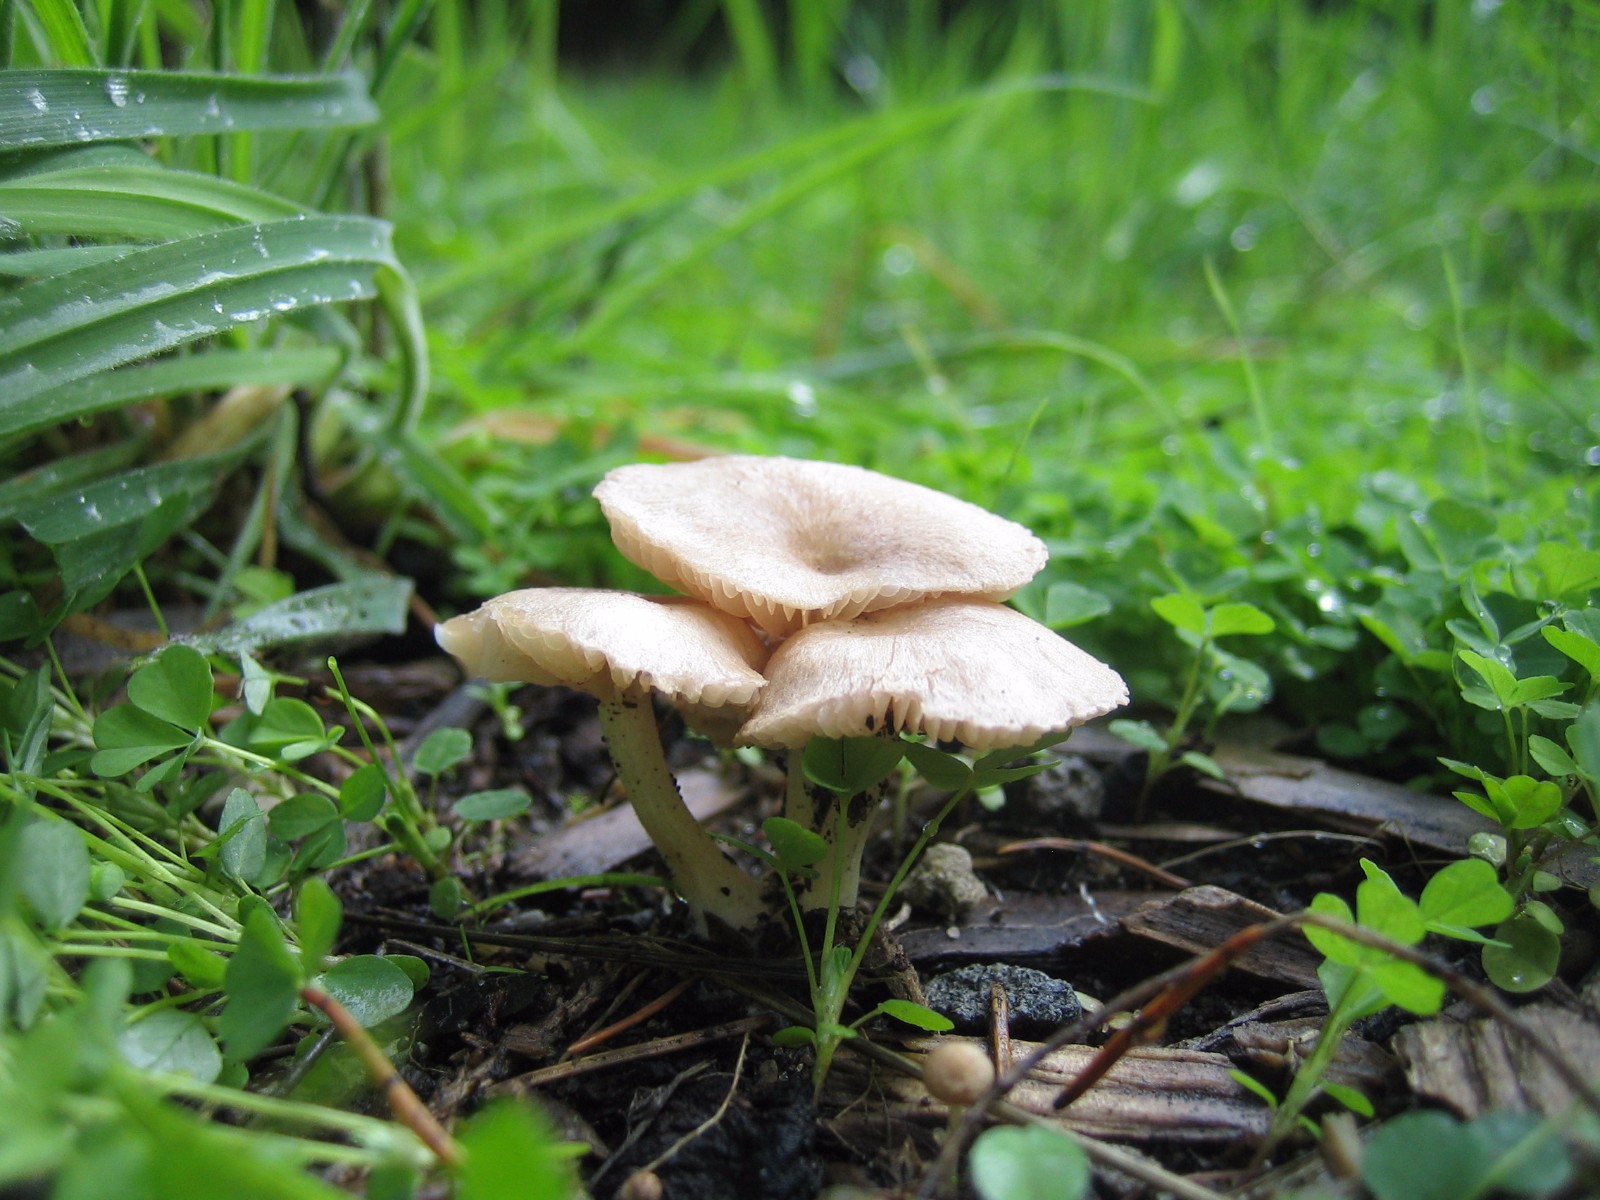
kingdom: Fungi
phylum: Basidiomycota
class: Agaricomycetes
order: Agaricales
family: Entolomataceae
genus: Entoloma
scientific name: Entoloma neglectum
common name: bleg rødblad
